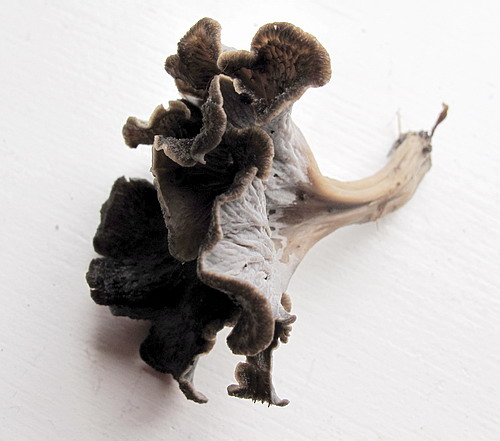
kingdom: Fungi
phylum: Basidiomycota
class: Agaricomycetes
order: Cantharellales
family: Hydnaceae
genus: Cantharellus
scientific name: Cantharellus cinereus
